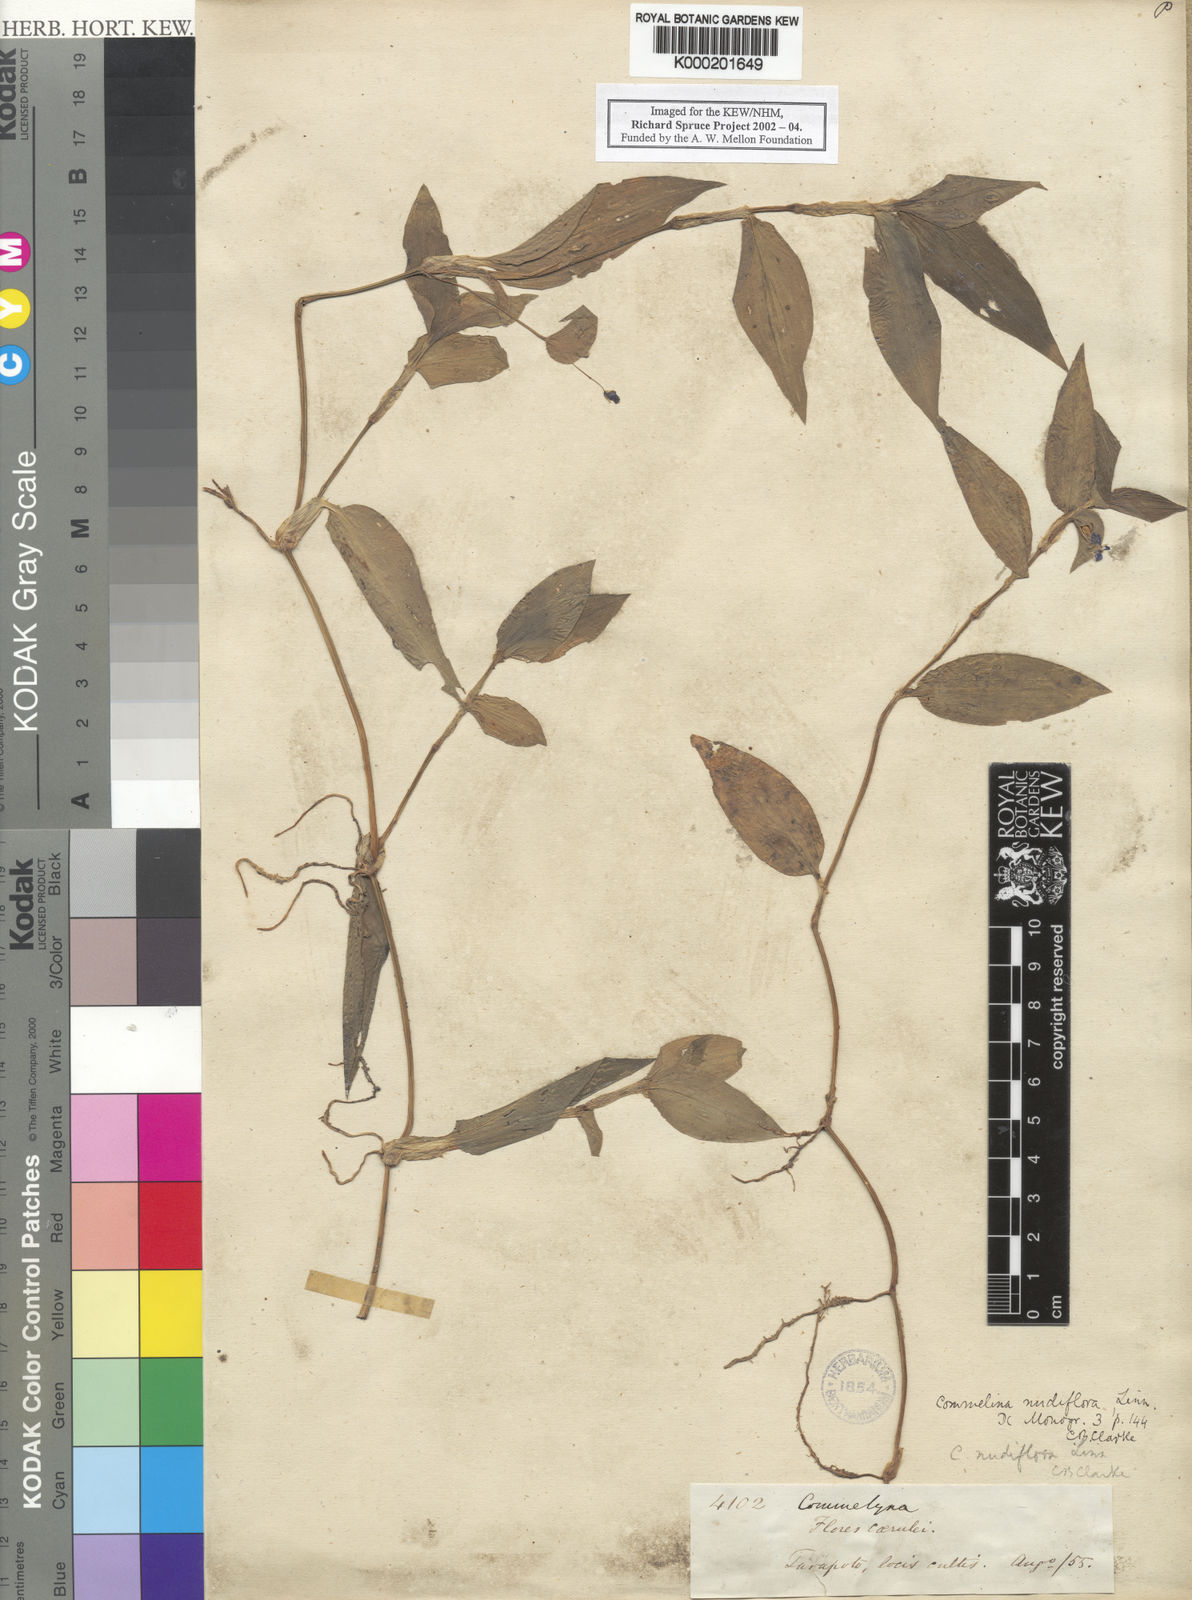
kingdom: Plantae
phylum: Tracheophyta
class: Liliopsida
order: Commelinales
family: Commelinaceae
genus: Commelina
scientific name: Commelina diffusa
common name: Climbing dayflower
